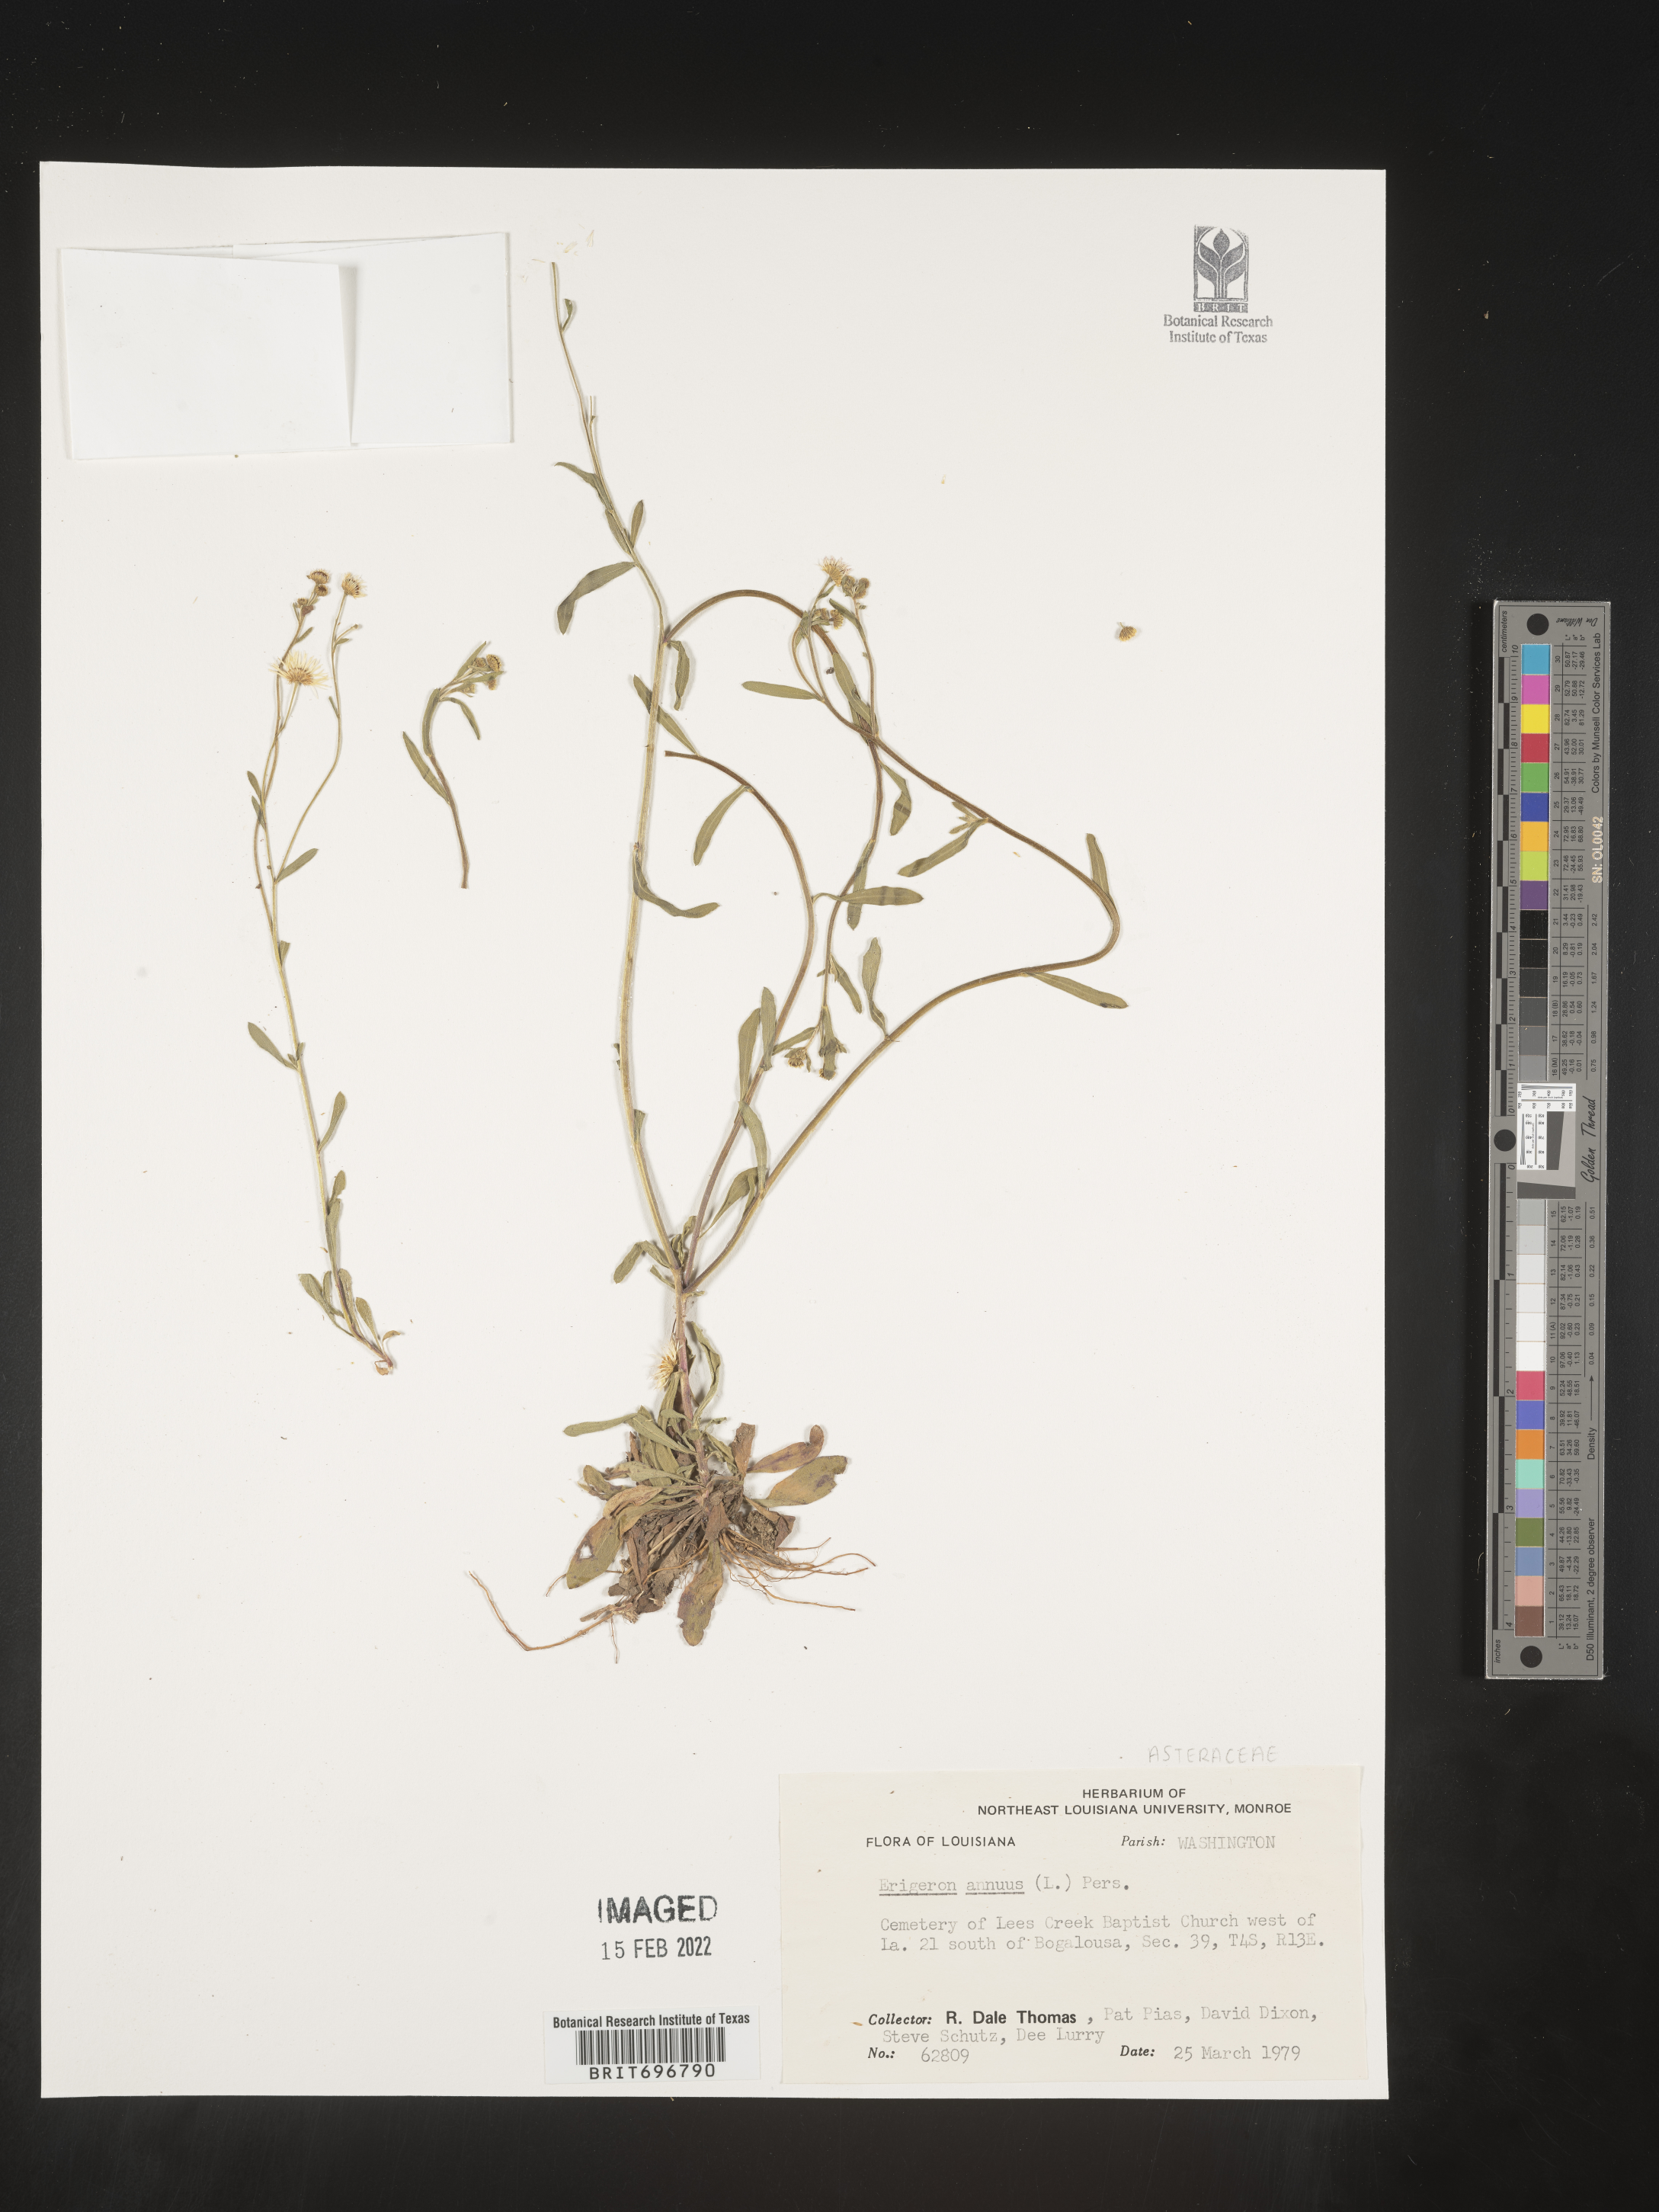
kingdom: Plantae
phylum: Tracheophyta
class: Magnoliopsida
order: Asterales
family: Asteraceae
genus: Erigeron
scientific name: Erigeron annuus
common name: Tall fleabane
